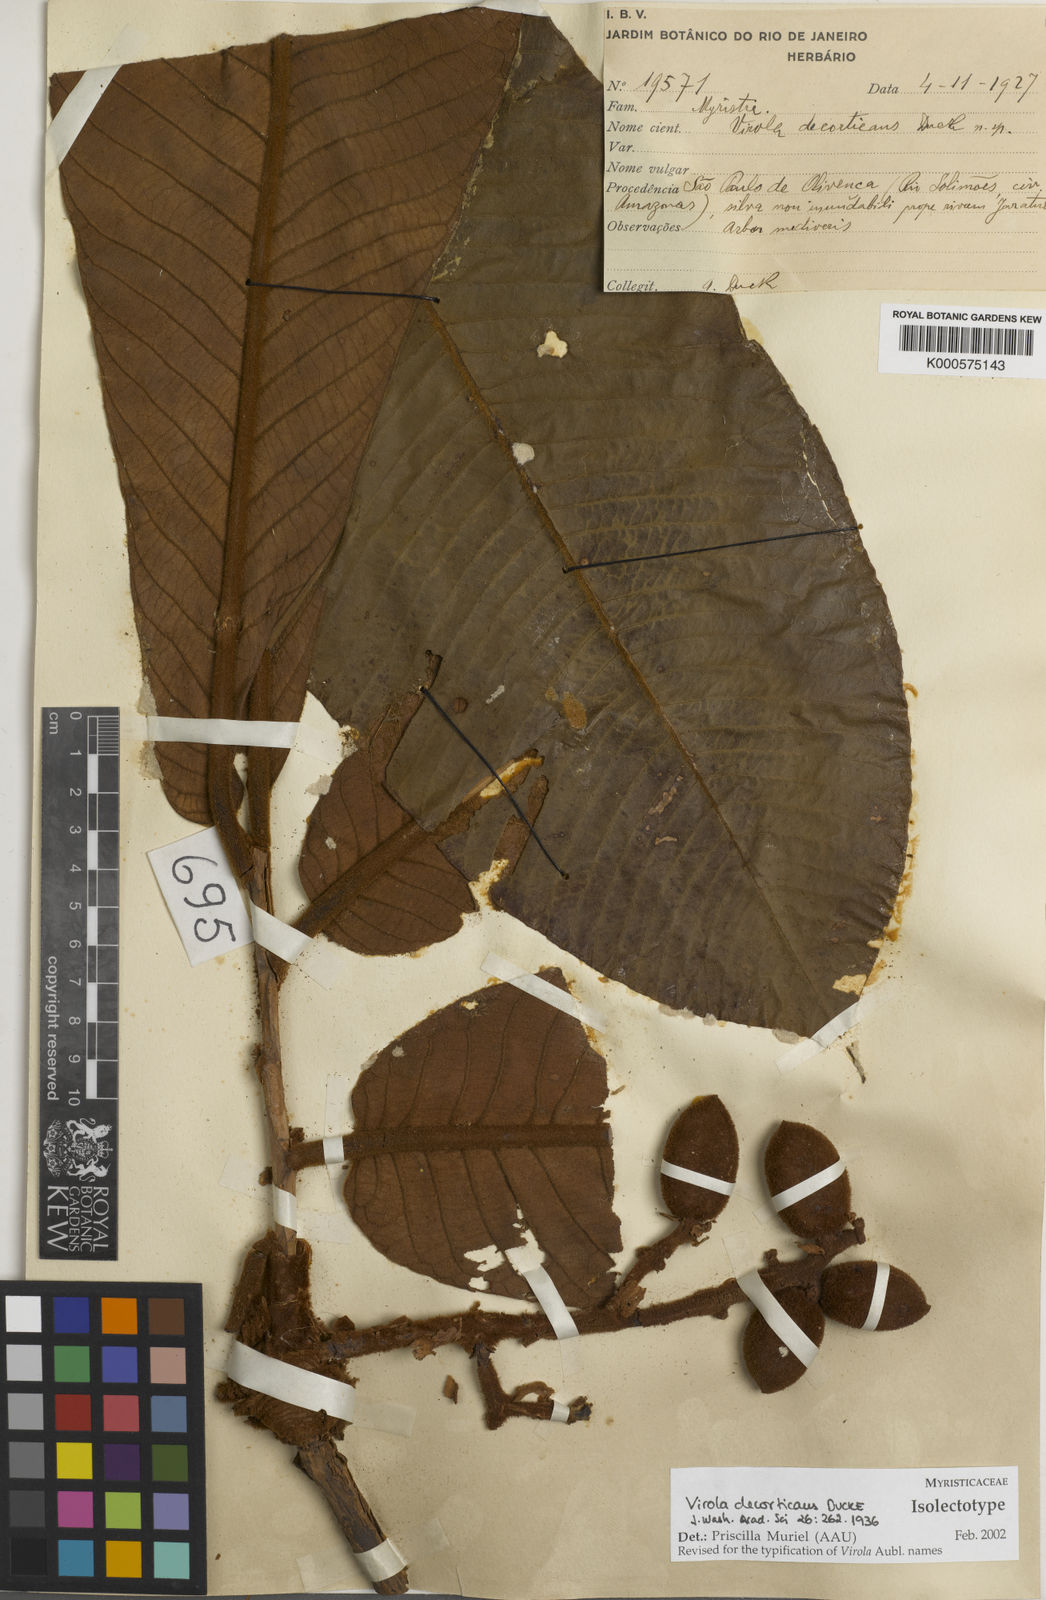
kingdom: Plantae
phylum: Tracheophyta
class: Magnoliopsida
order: Magnoliales
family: Myristicaceae
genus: Virola
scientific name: Virola decorticans
